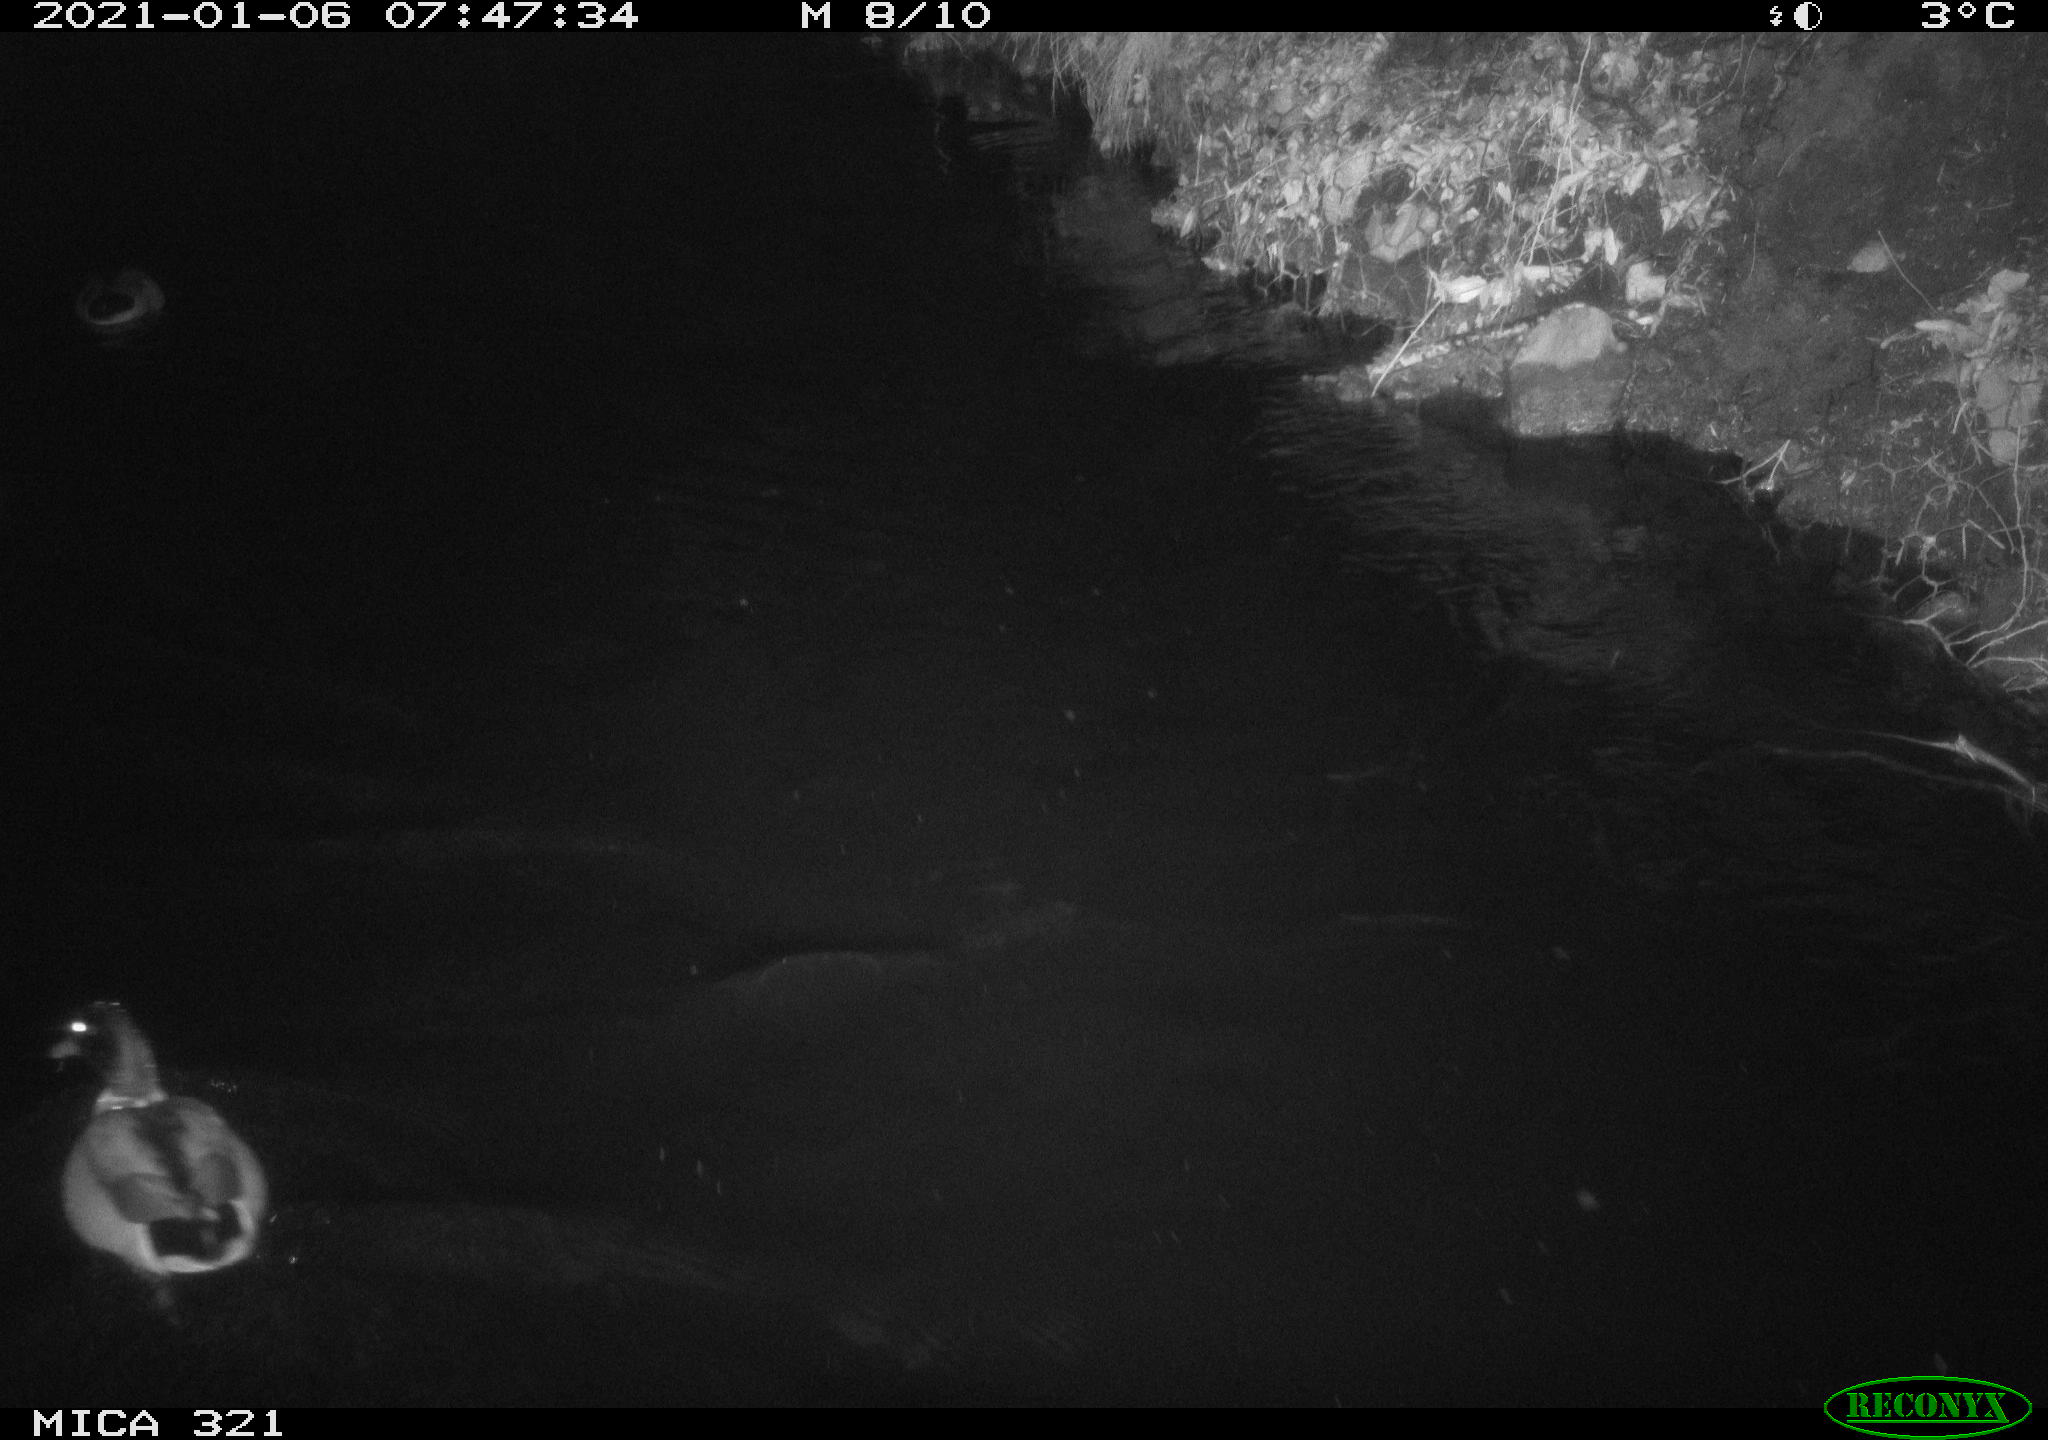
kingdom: Animalia
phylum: Chordata
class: Aves
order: Anseriformes
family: Anatidae
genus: Anas
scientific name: Anas platyrhynchos
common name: Mallard
